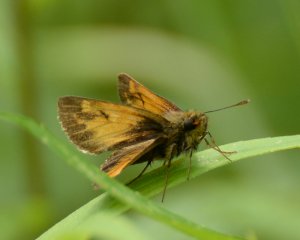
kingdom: Animalia
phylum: Arthropoda
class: Insecta
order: Lepidoptera
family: Hesperiidae
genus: Lon
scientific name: Lon hobomok
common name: Hobomok Skipper
